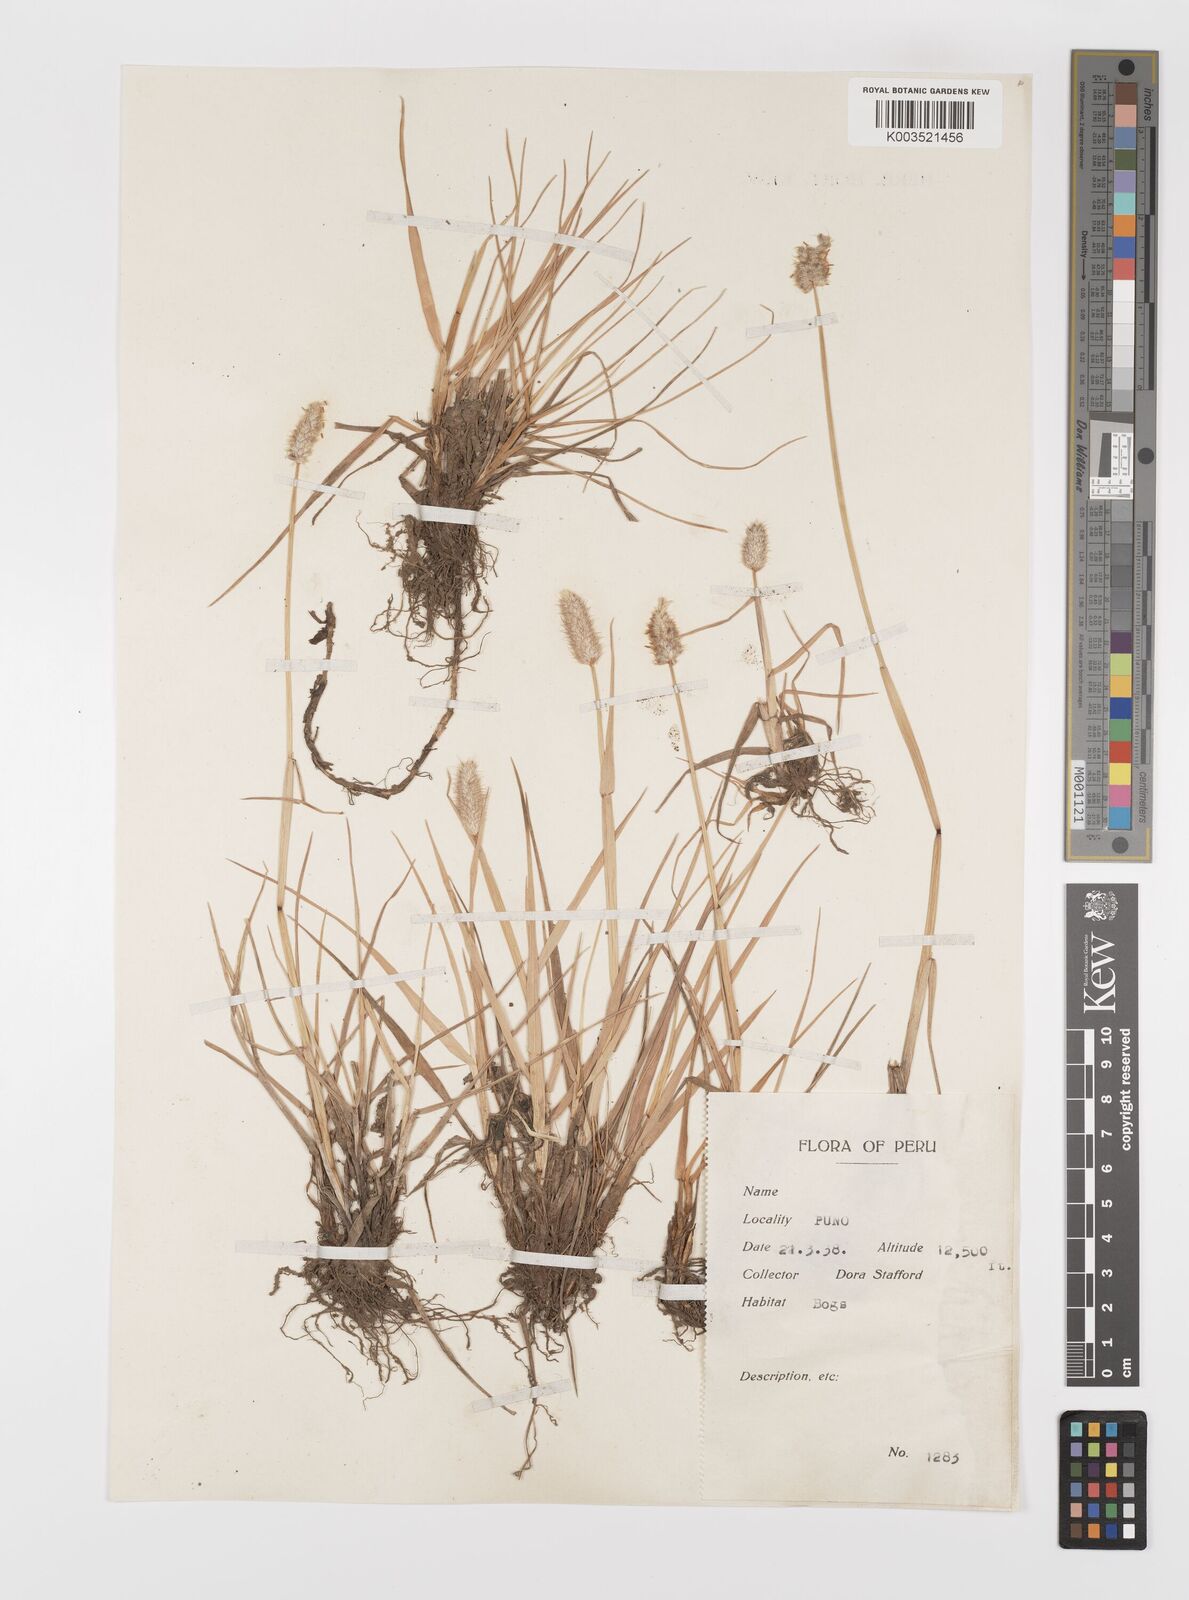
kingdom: Plantae
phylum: Tracheophyta
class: Liliopsida
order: Poales
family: Poaceae
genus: Alopecurus
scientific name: Alopecurus magellanicus
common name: Alpine foxtail
